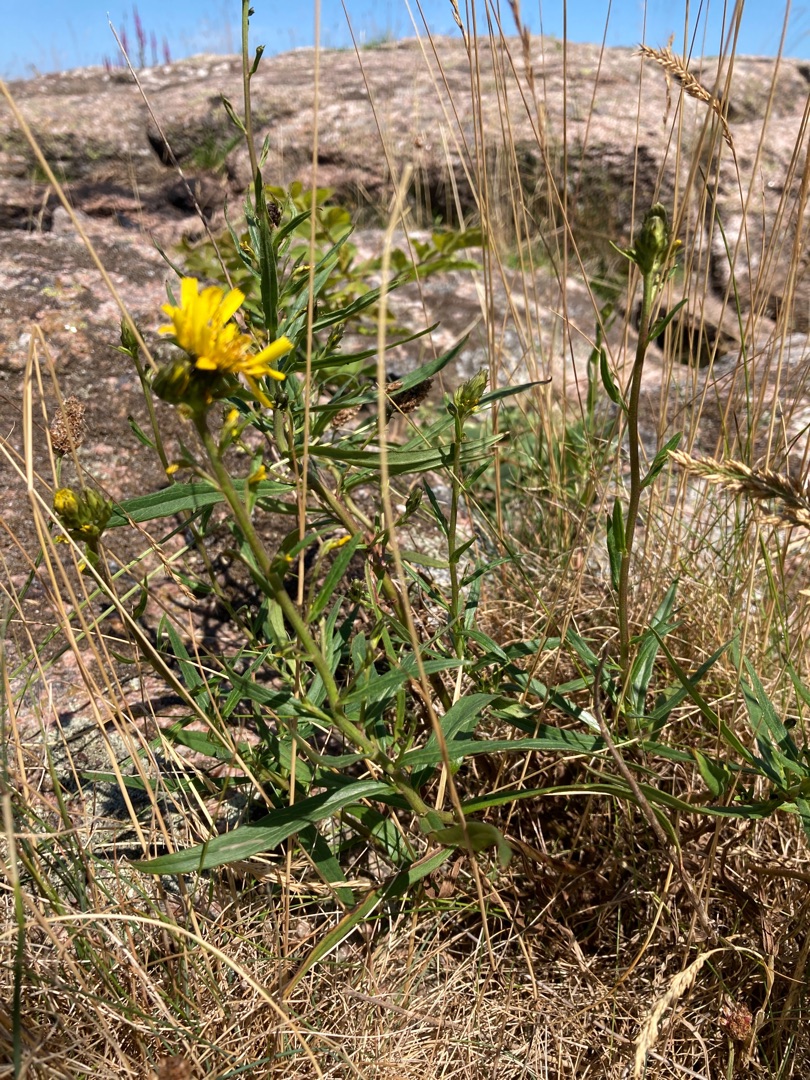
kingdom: Plantae
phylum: Tracheophyta
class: Magnoliopsida
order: Asterales
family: Asteraceae
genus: Hieracium
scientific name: Hieracium umbellatum
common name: Smalbladet høgeurt
